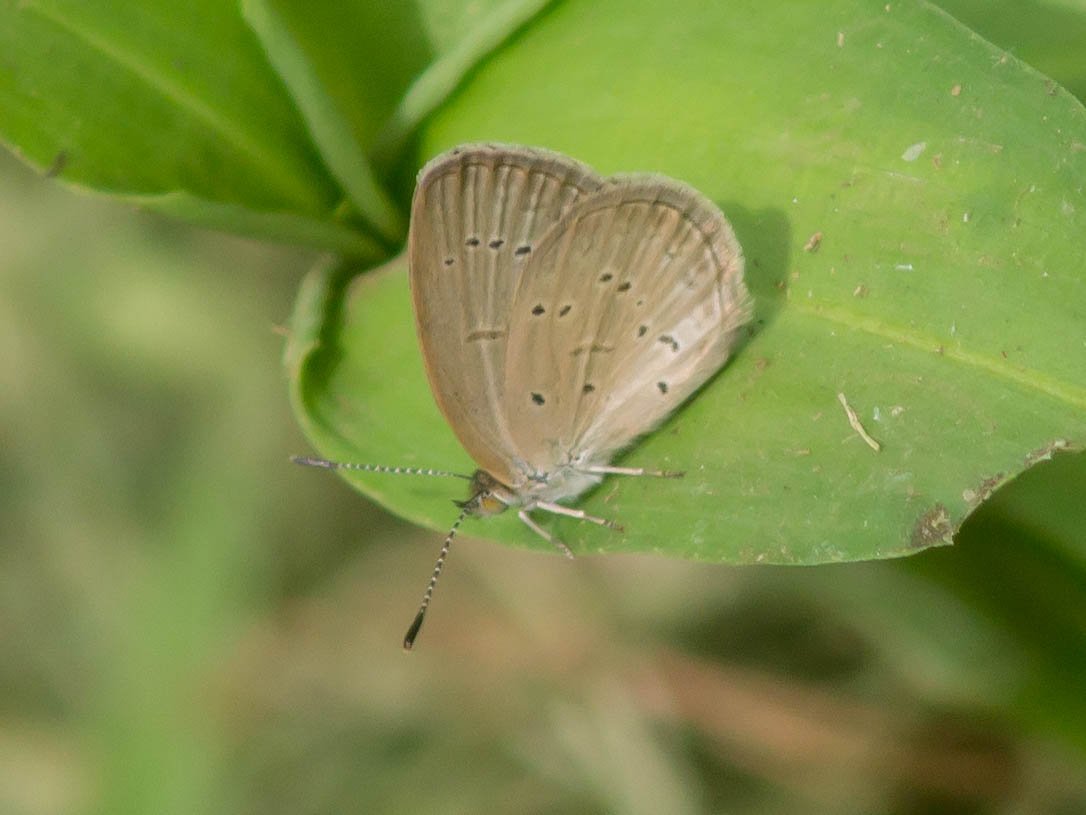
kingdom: Animalia
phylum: Arthropoda
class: Insecta
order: Lepidoptera
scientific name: Lepidoptera
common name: Butterflies
